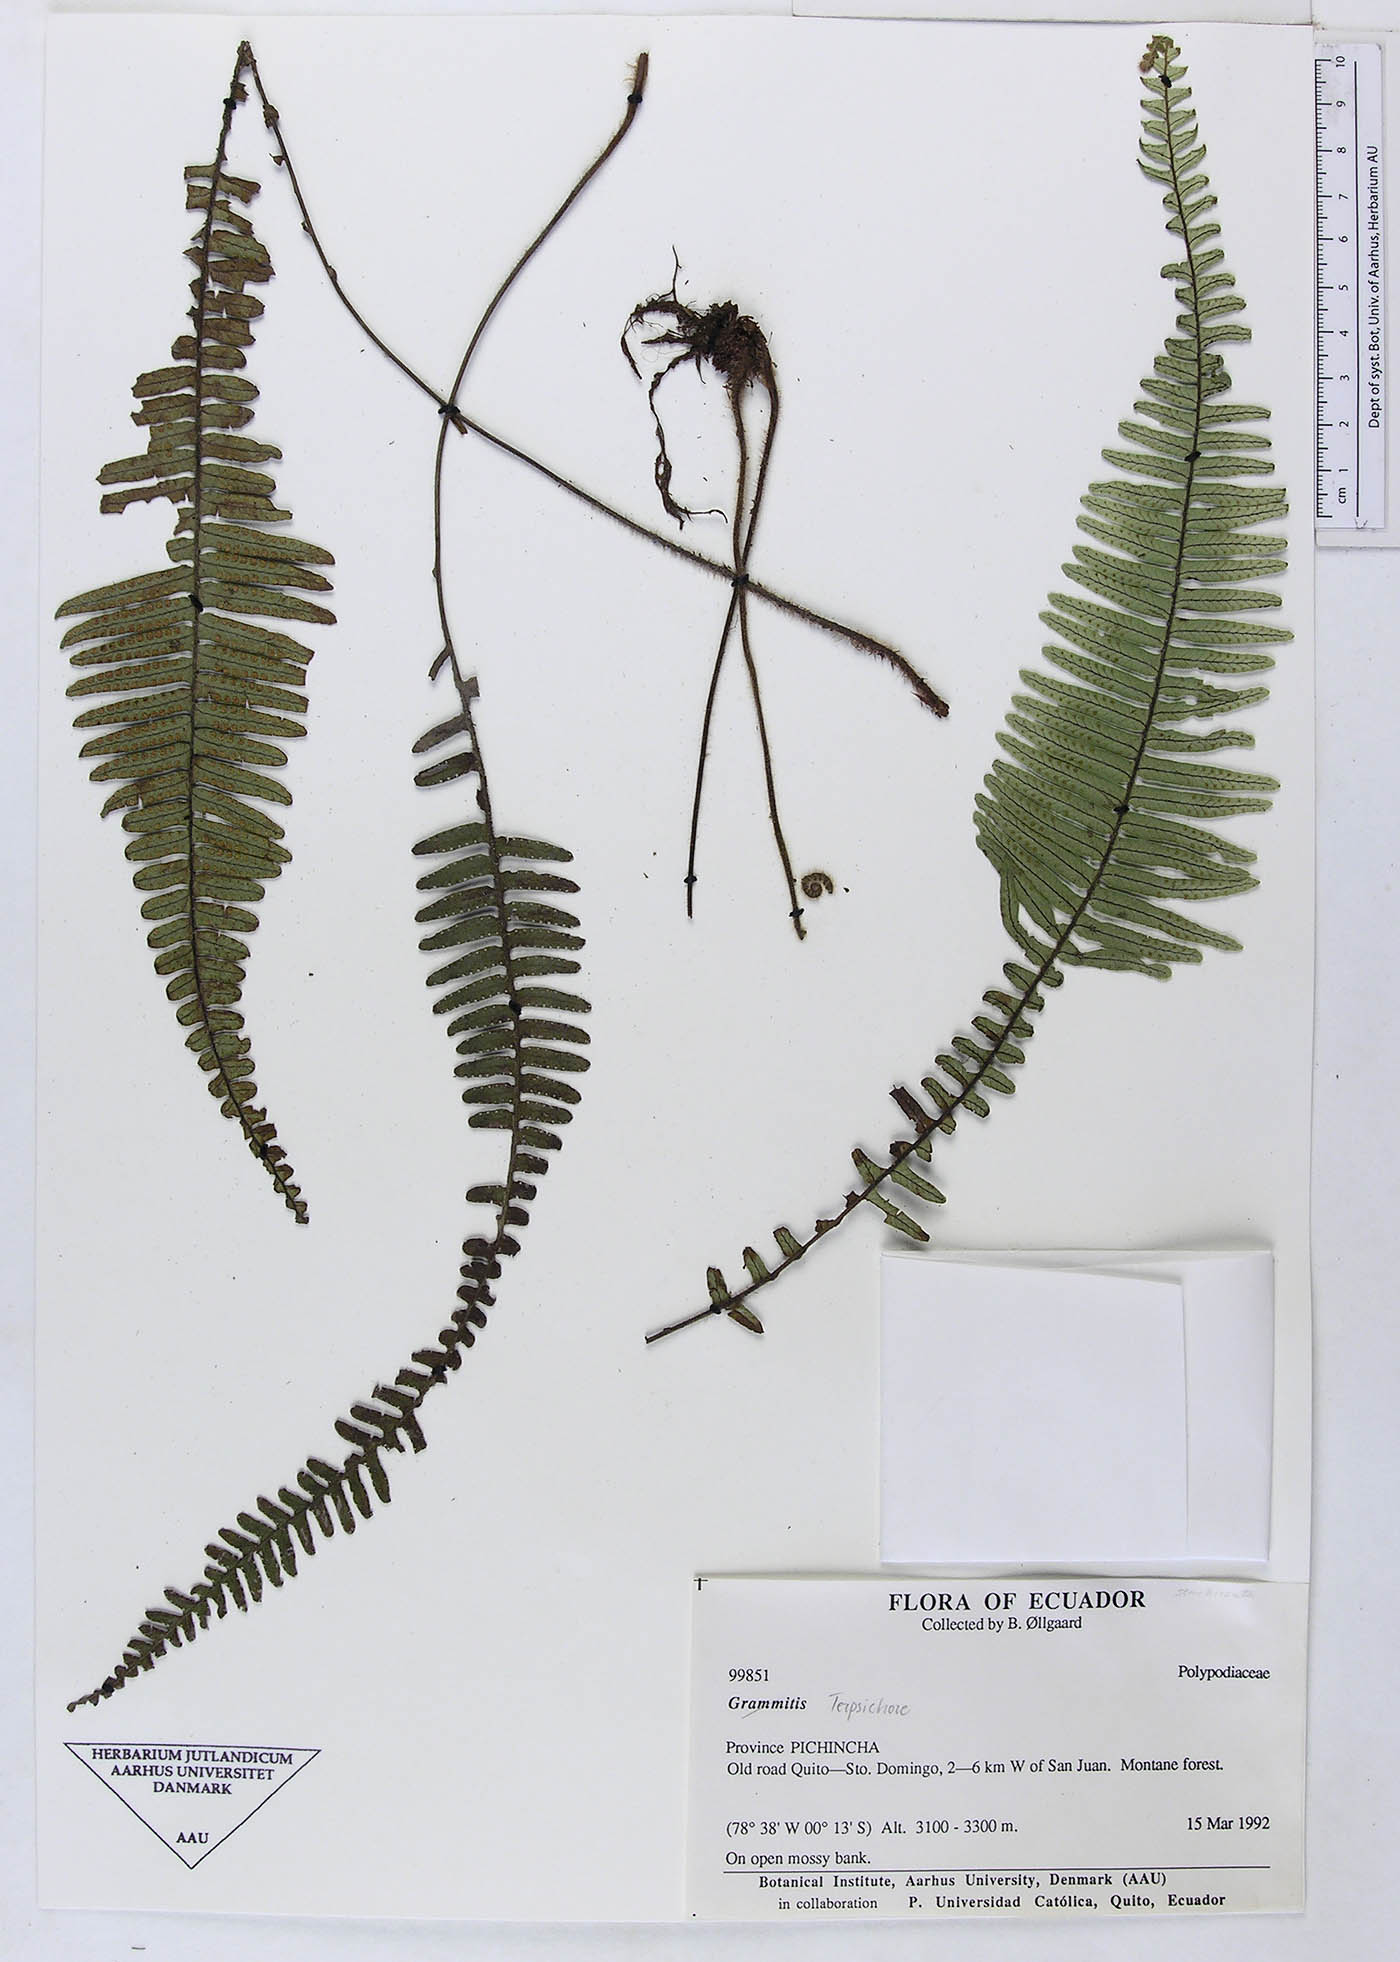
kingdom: Plantae
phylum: Tracheophyta
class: Polypodiopsida
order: Polypodiales
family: Polypodiaceae
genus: Grammitis
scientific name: Grammitis
